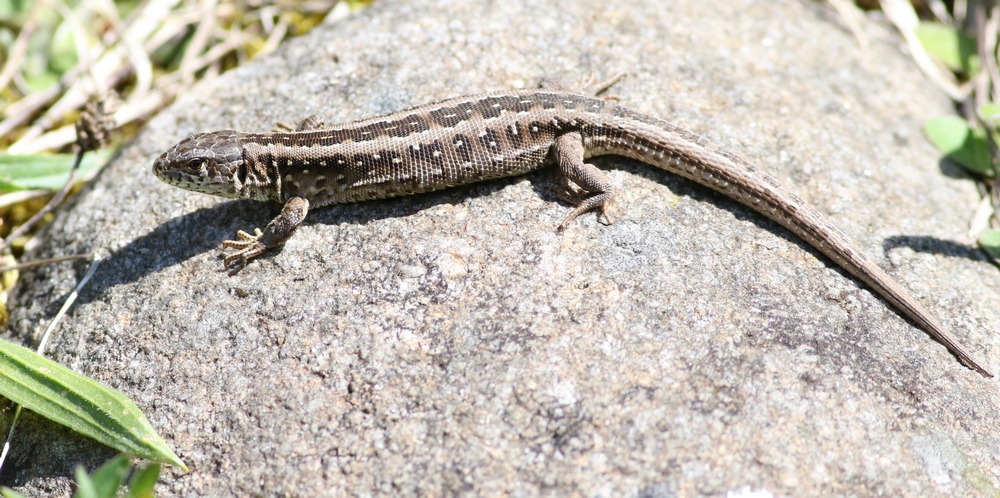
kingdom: Animalia
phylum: Chordata
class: Squamata
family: Lacertidae
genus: Lacerta
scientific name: Lacerta agilis
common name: Markfirben
